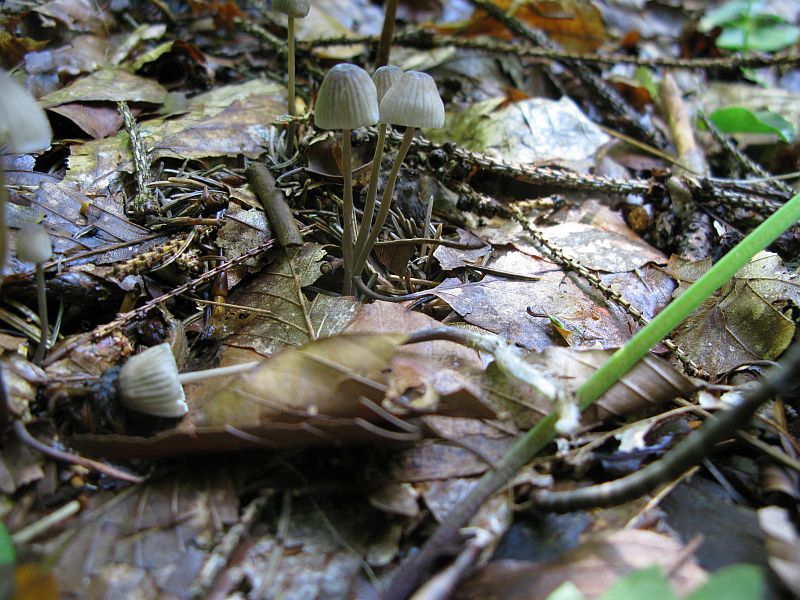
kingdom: Fungi
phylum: Basidiomycota
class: Agaricomycetes
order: Agaricales
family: Mycenaceae
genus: Mycena
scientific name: Mycena galopus
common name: hvidmælket huesvamp
